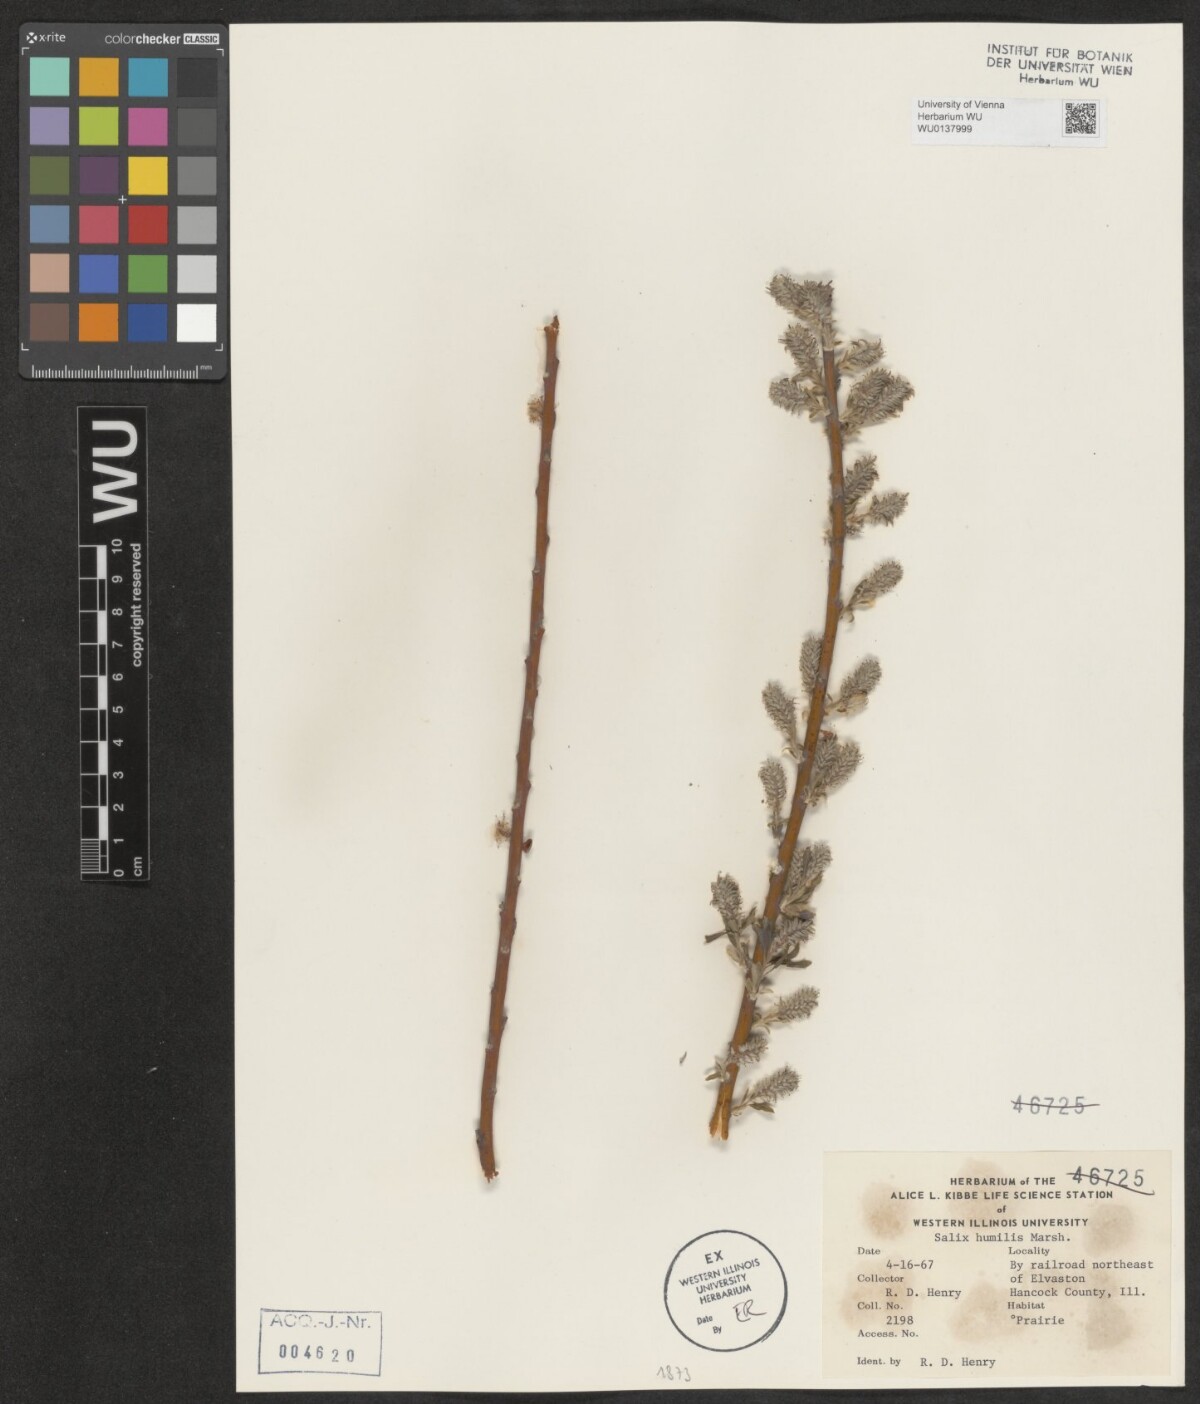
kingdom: Plantae
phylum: Tracheophyta
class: Magnoliopsida
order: Malpighiales
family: Salicaceae
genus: Salix
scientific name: Salix humilis
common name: Prairie willow
